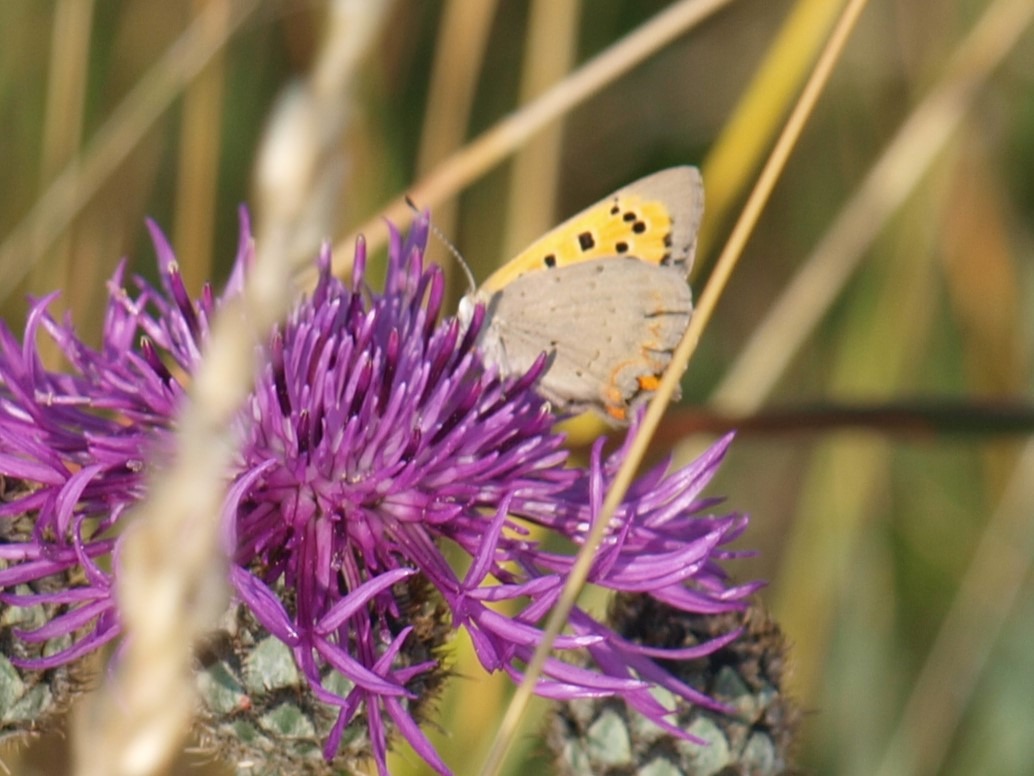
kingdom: Animalia
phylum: Arthropoda
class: Insecta
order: Lepidoptera
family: Lycaenidae
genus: Lycaena
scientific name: Lycaena phlaeas
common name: Lille ildfugl
